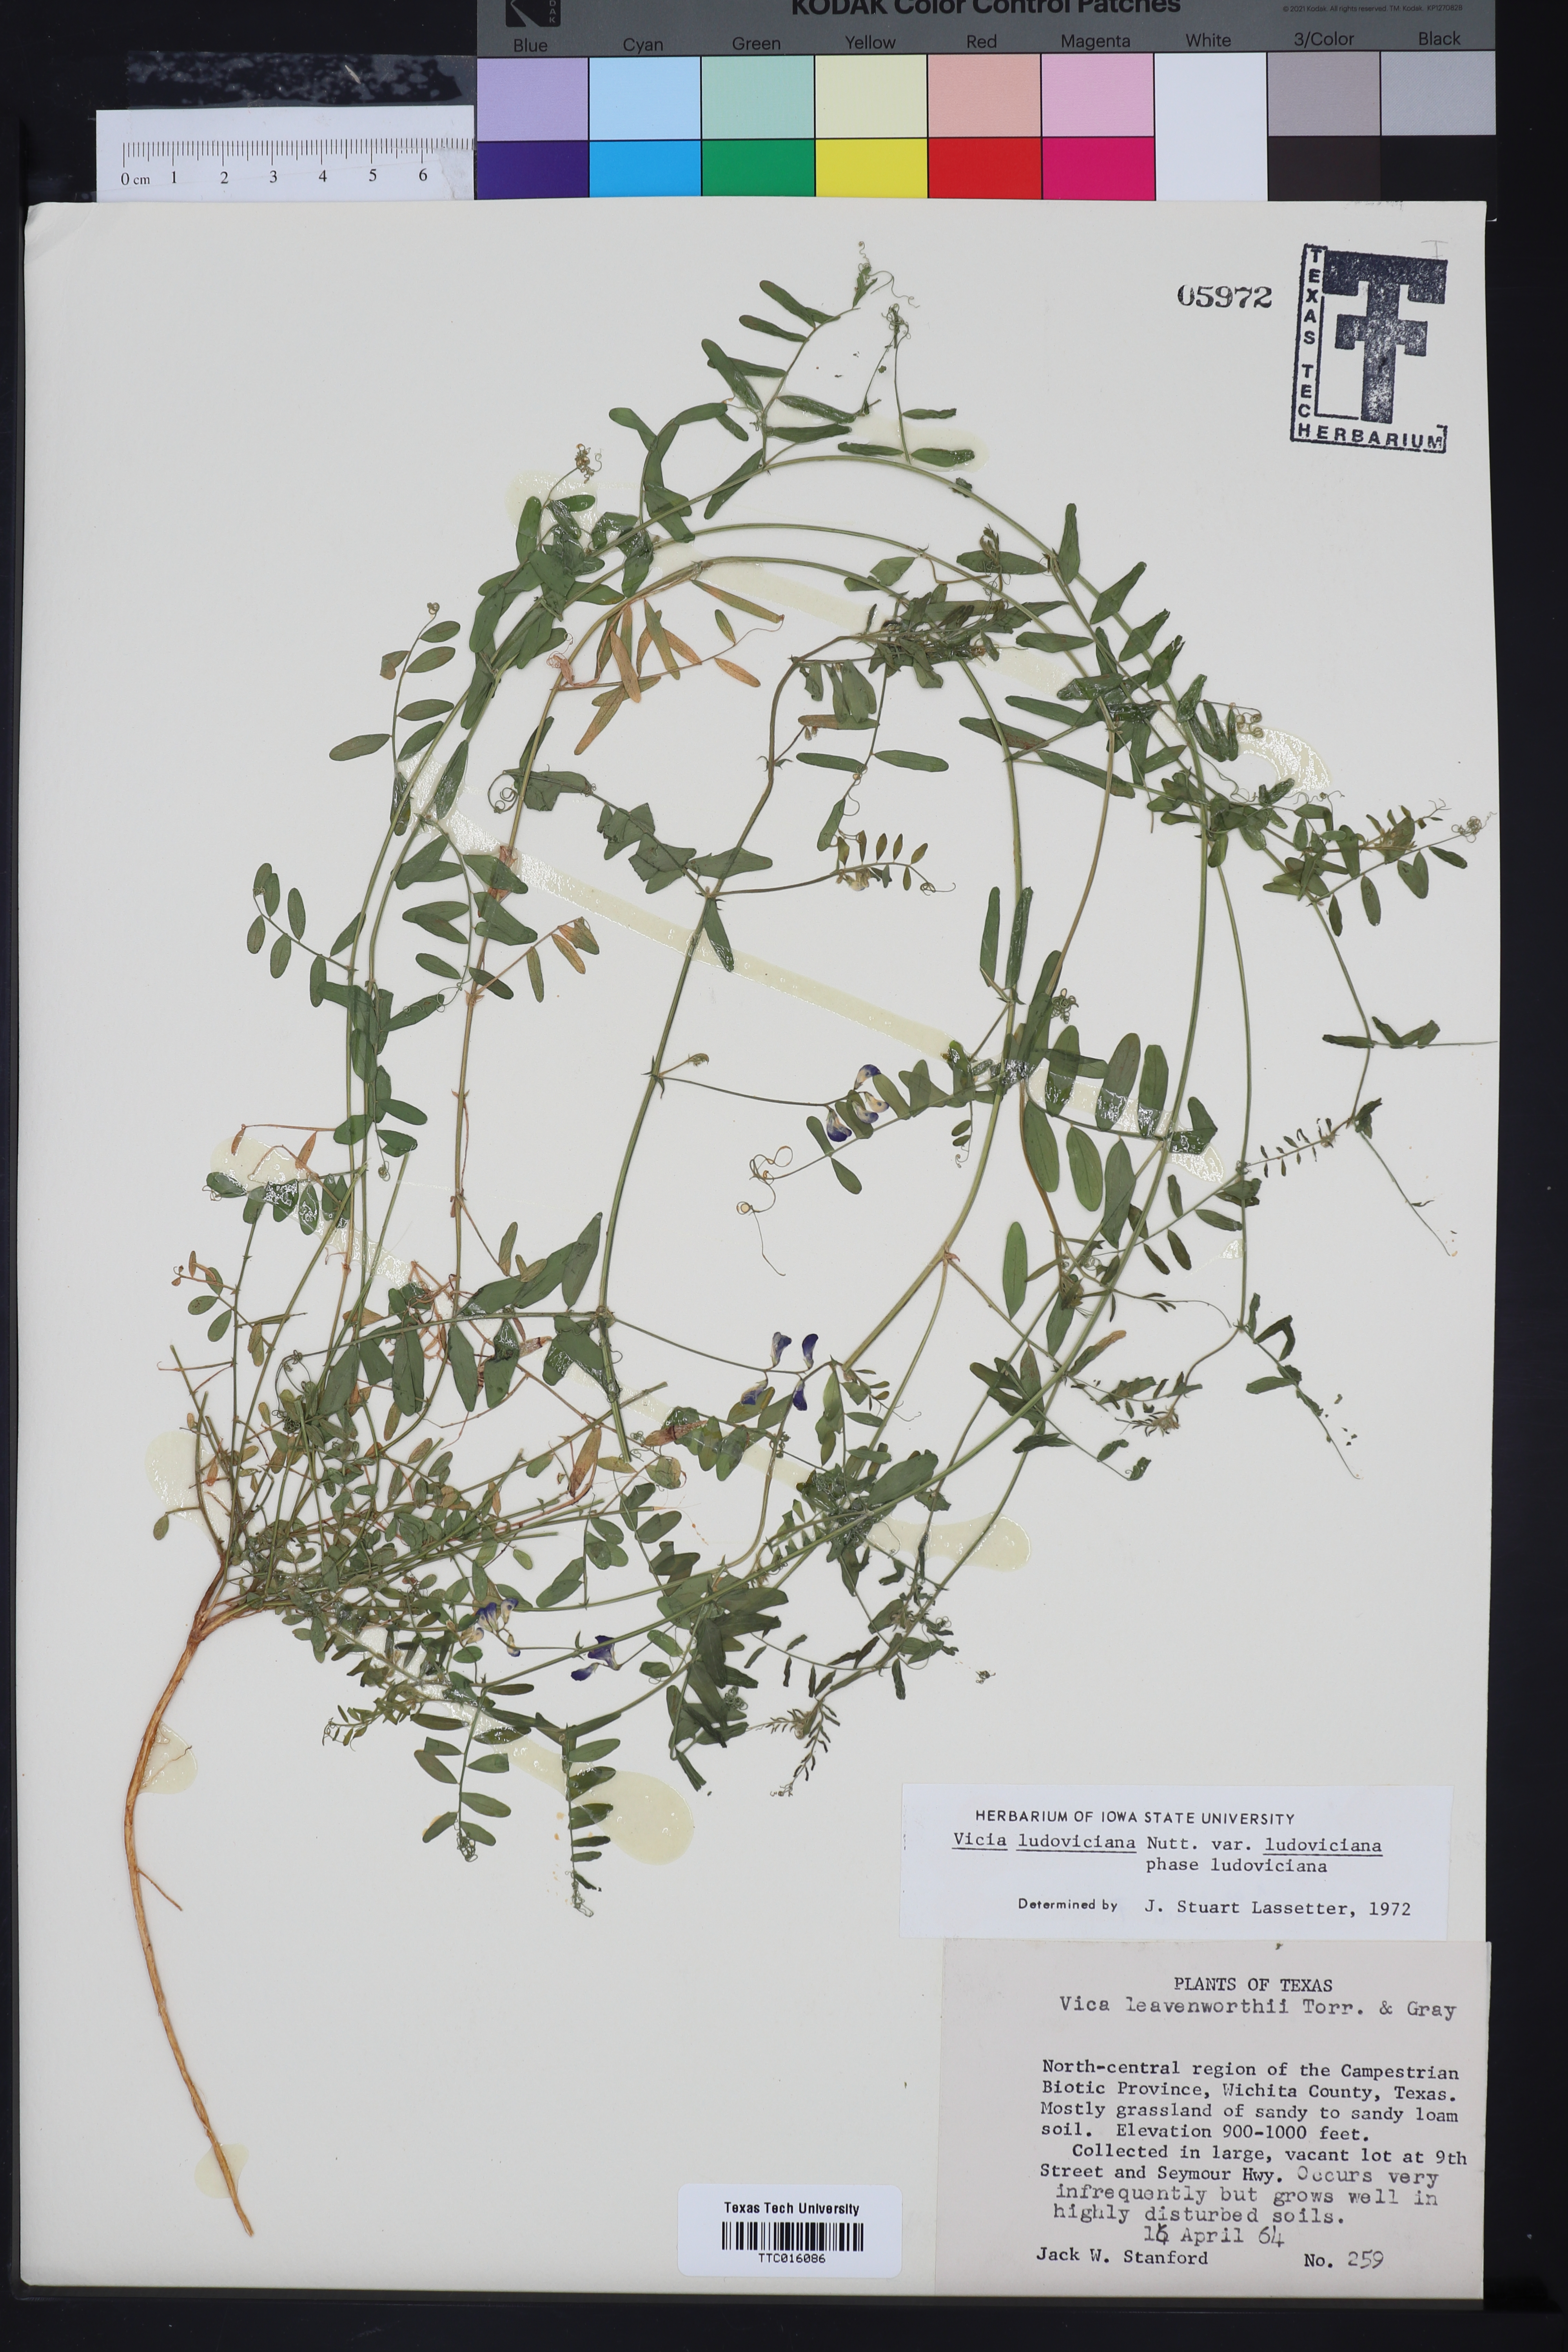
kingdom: Plantae
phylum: Tracheophyta
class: Magnoliopsida
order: Fabales
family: Fabaceae
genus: Vicia
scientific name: Vicia ludoviciana
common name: Louisiana vetch
